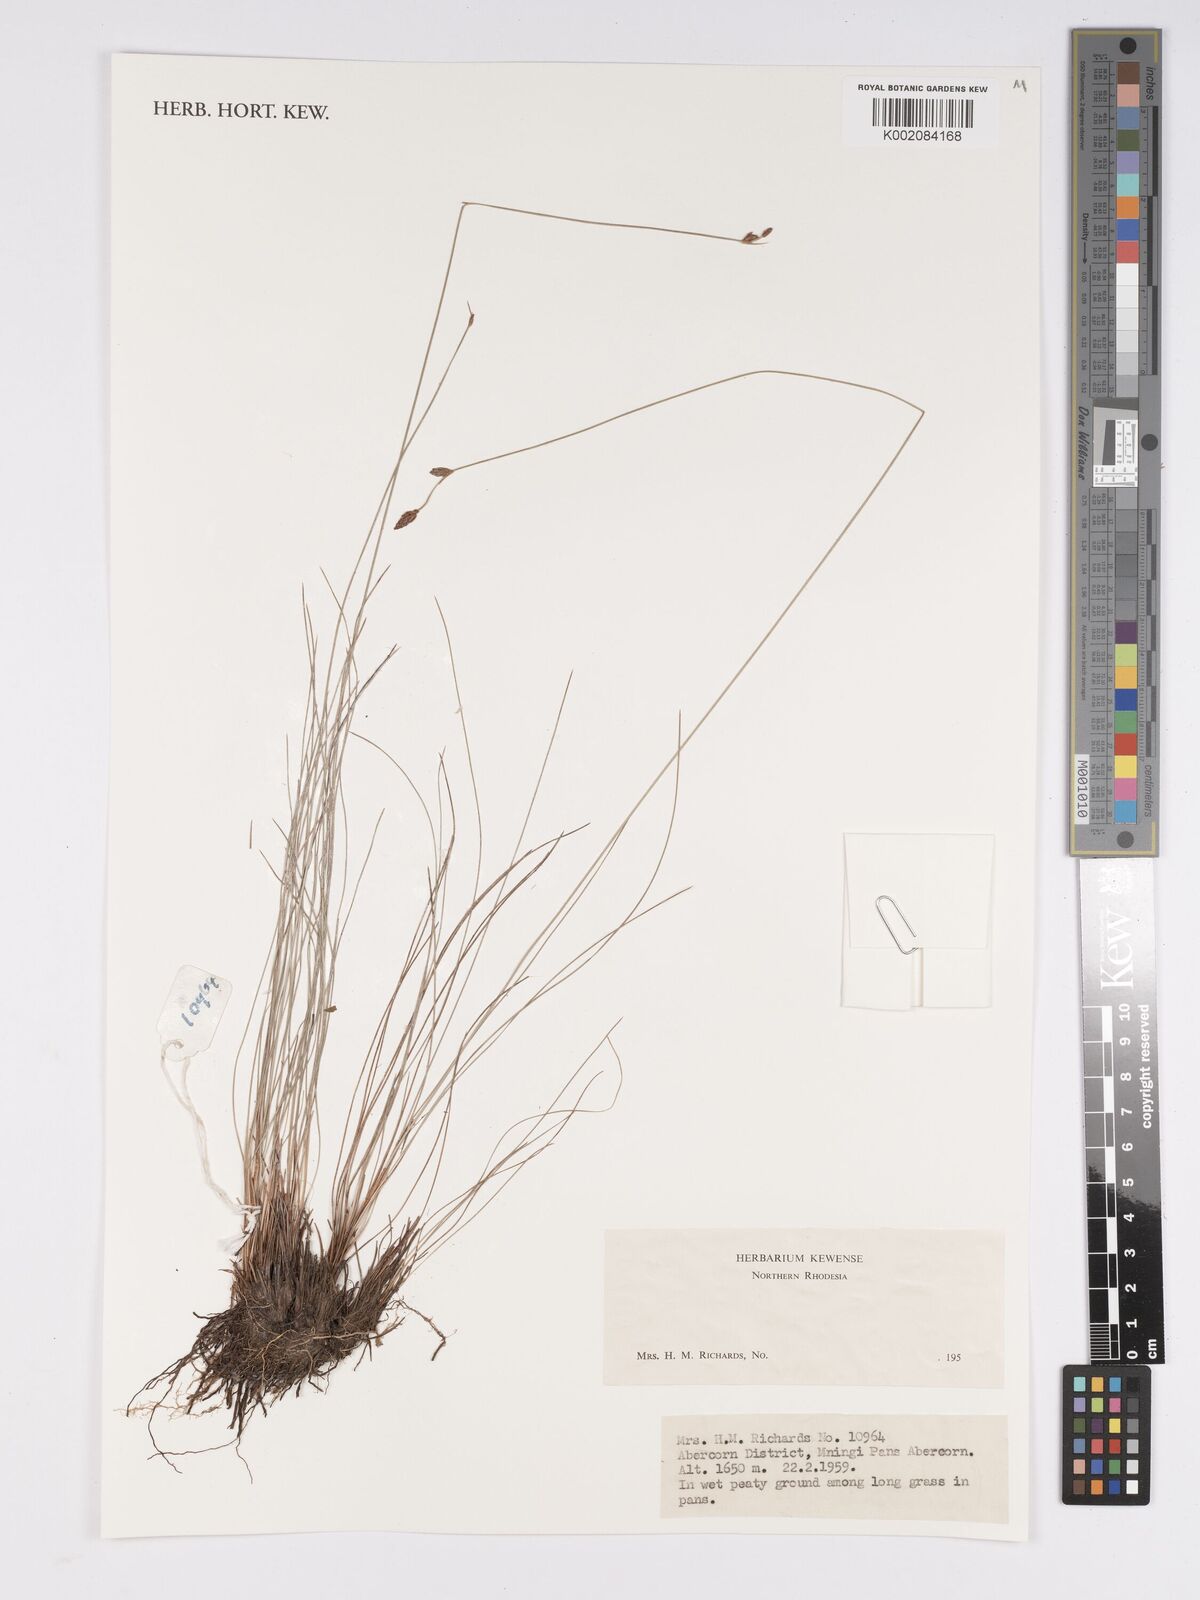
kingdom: Plantae
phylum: Tracheophyta
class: Liliopsida
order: Poales
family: Cyperaceae
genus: Bulbostylis
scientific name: Bulbostylis
